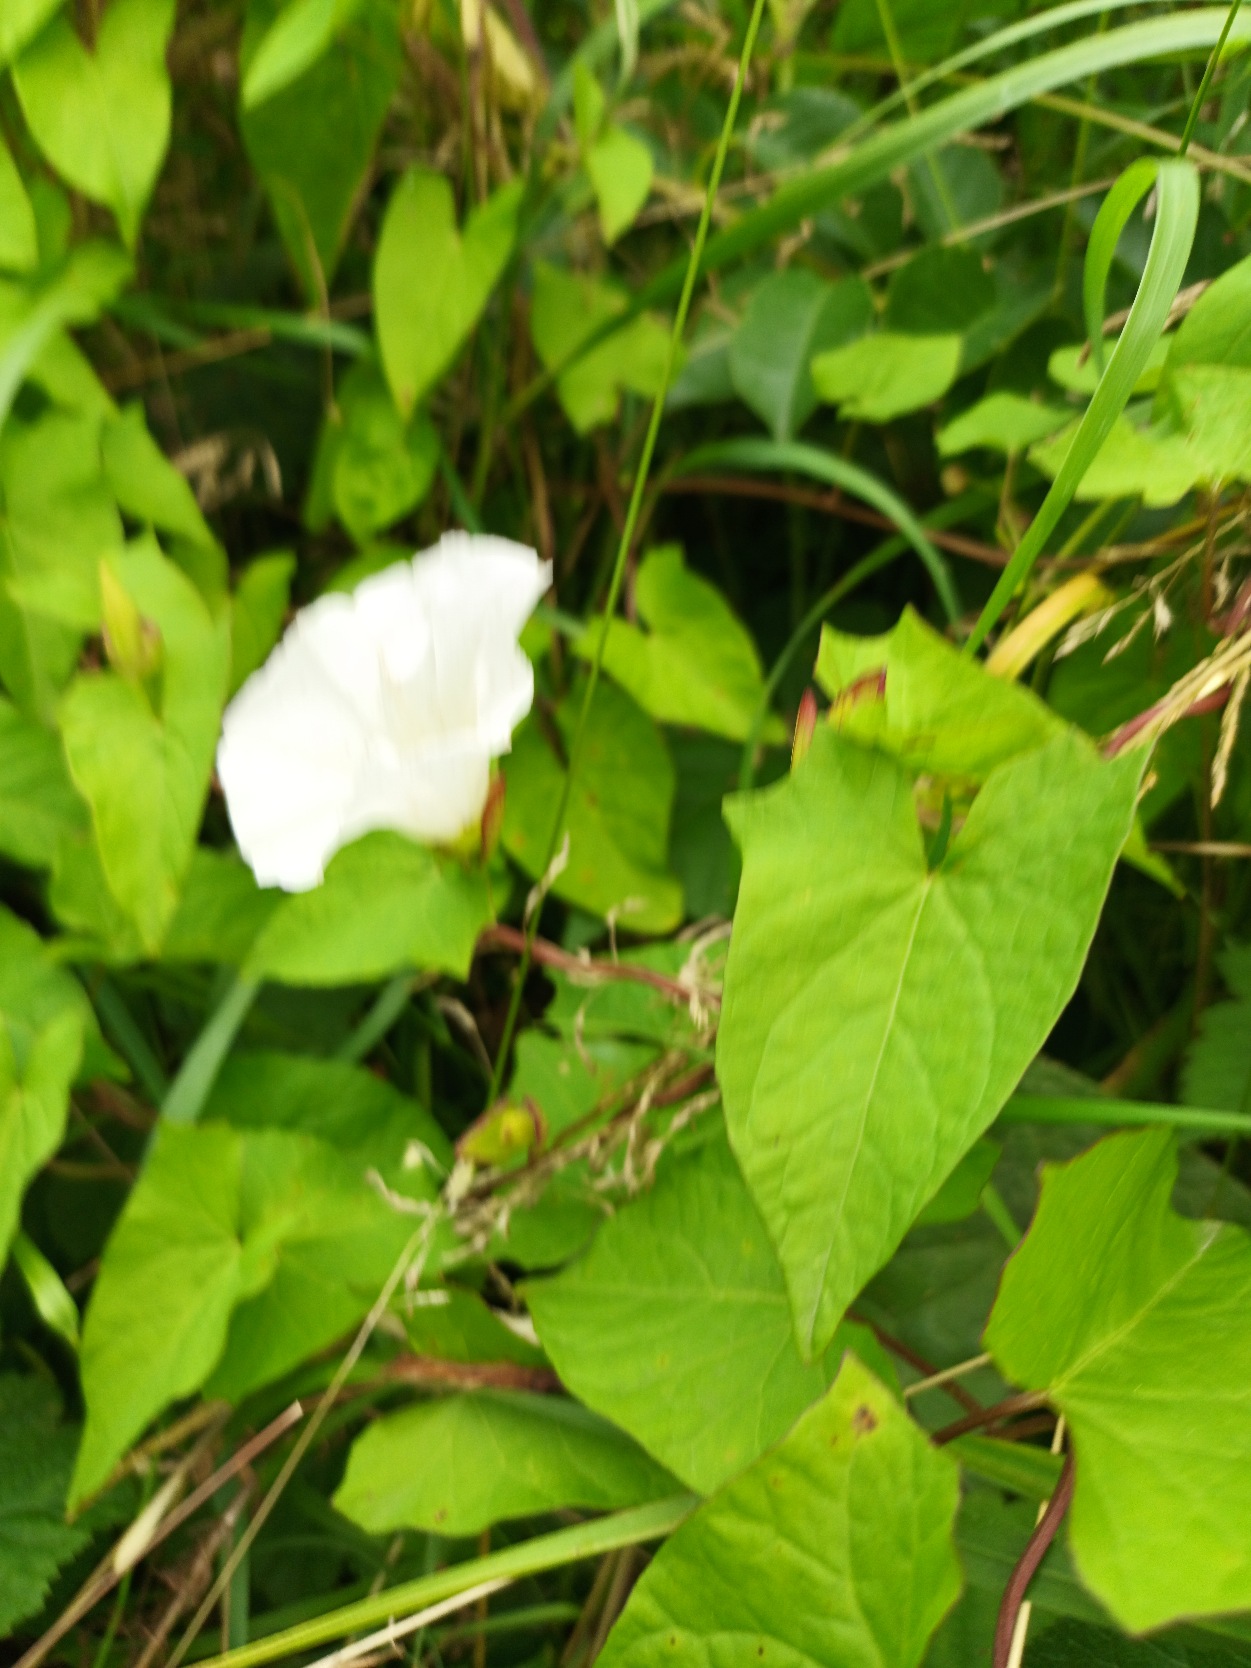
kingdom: Plantae
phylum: Tracheophyta
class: Magnoliopsida
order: Solanales
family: Convolvulaceae
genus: Calystegia
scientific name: Calystegia sepium
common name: Gærde-snerle
